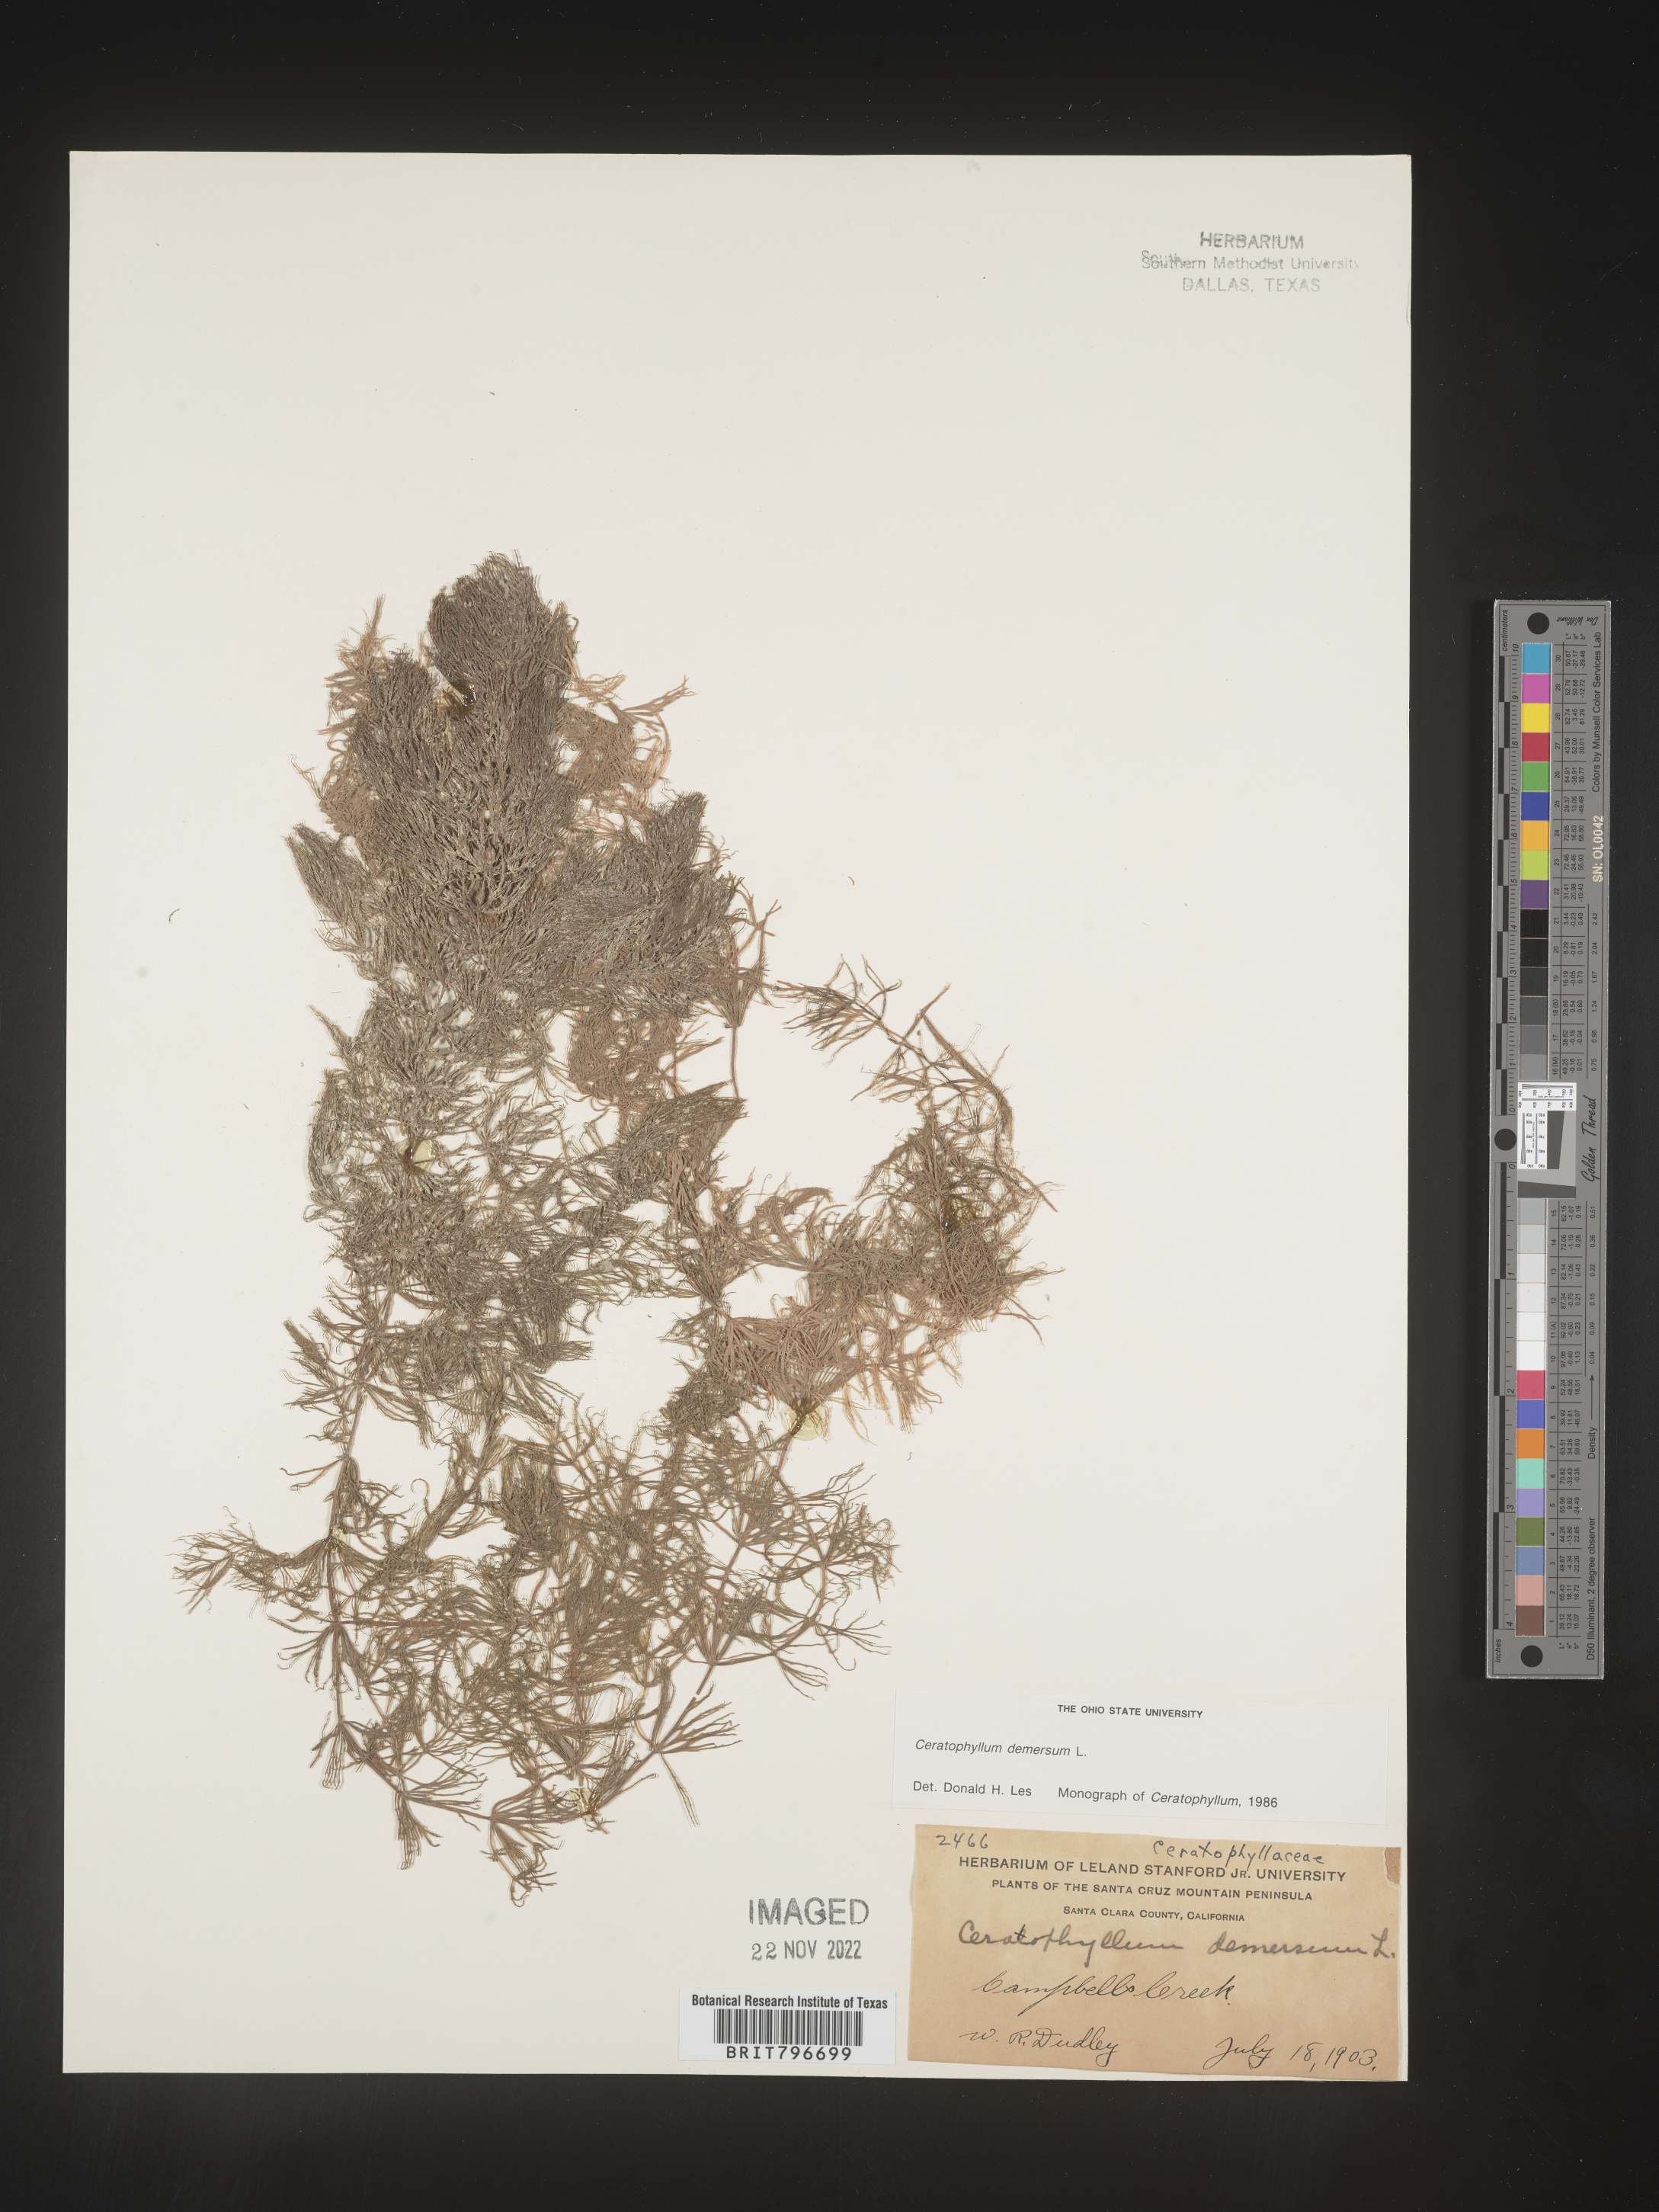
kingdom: Plantae
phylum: Tracheophyta
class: Magnoliopsida
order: Ceratophyllales
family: Ceratophyllaceae
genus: Ceratophyllum
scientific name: Ceratophyllum demersum
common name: Rigid hornwort
